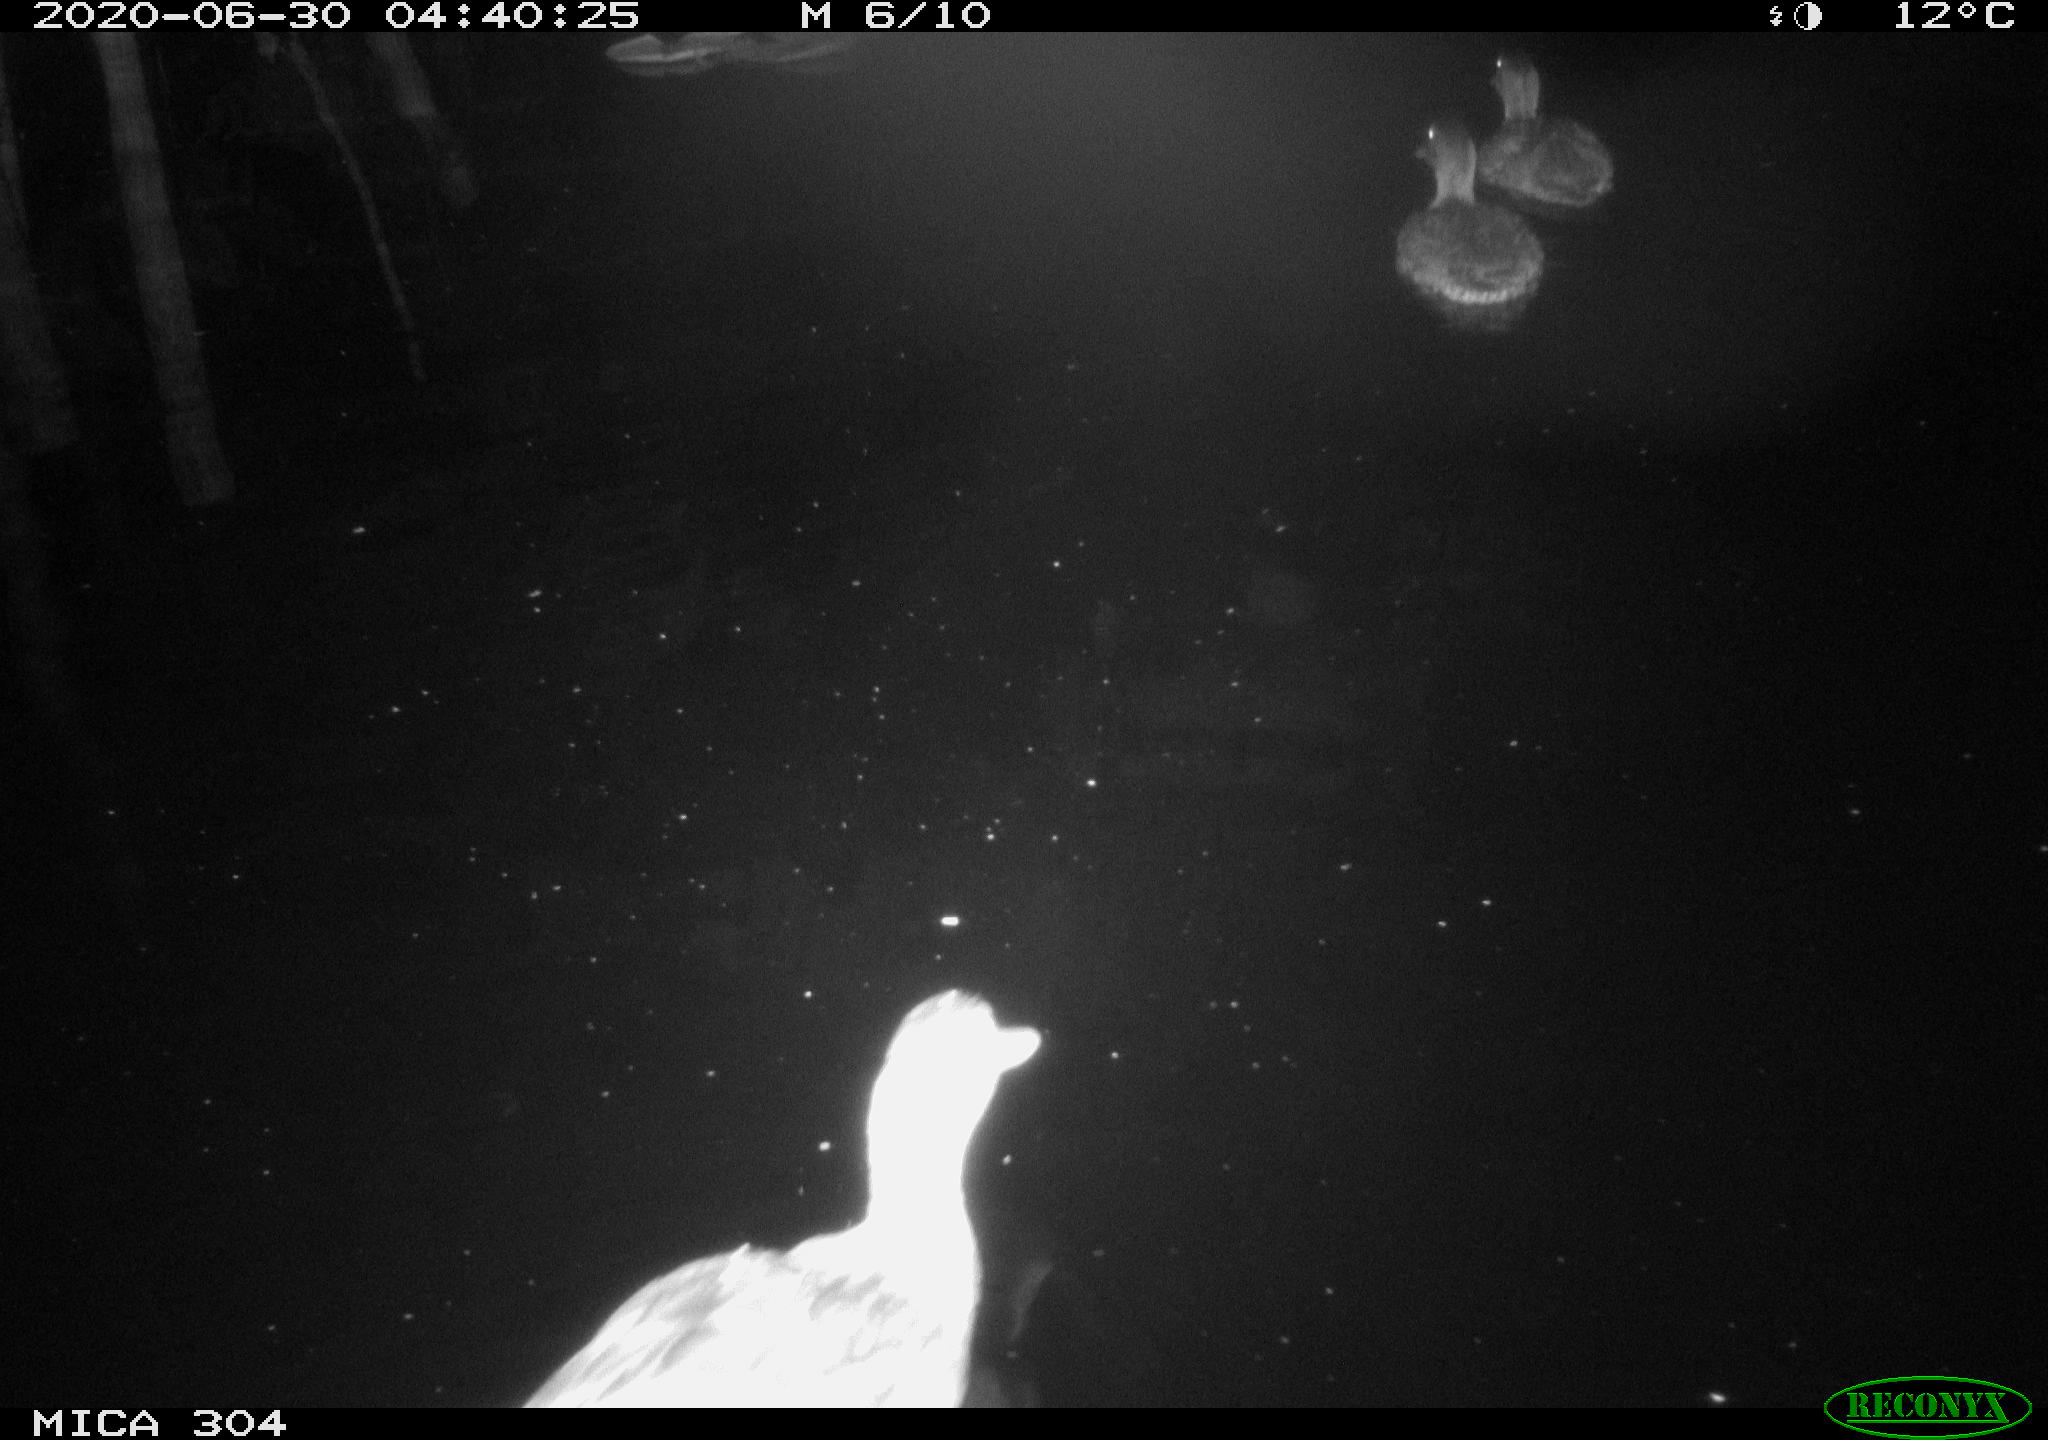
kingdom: Animalia
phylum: Chordata
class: Aves
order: Anseriformes
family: Anatidae
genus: Anas
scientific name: Anas platyrhynchos
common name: Mallard
